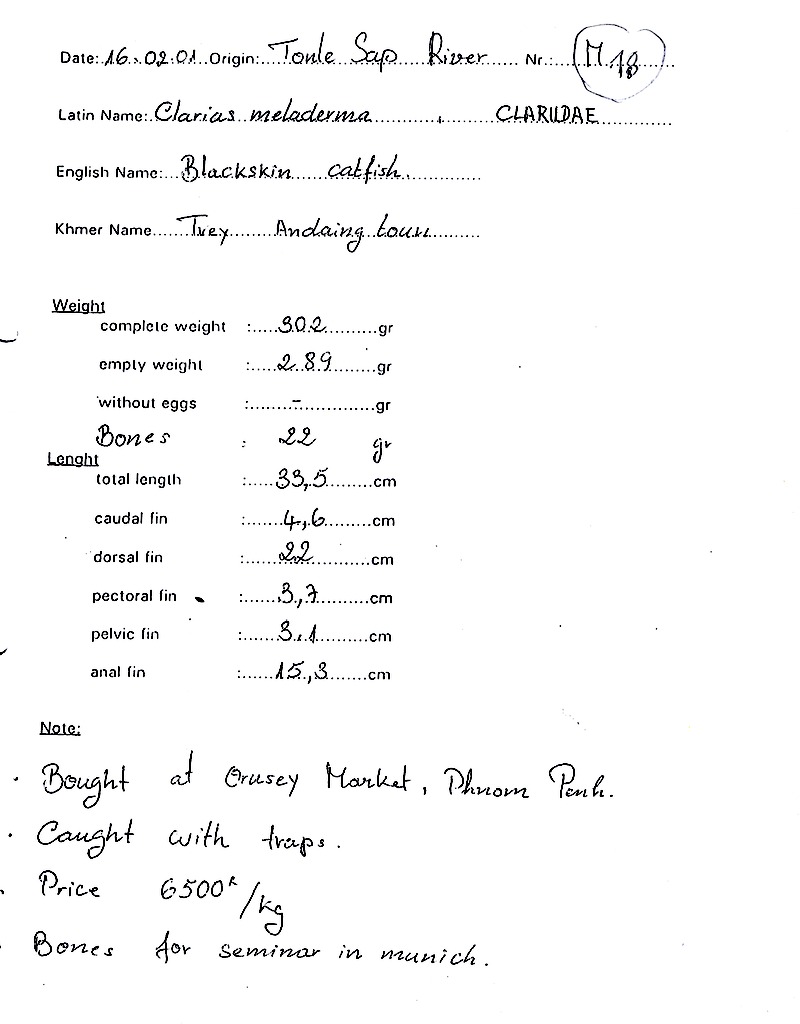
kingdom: Animalia
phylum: Chordata
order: Siluriformes
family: Clariidae
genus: Clarias
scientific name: Clarias meladerma
